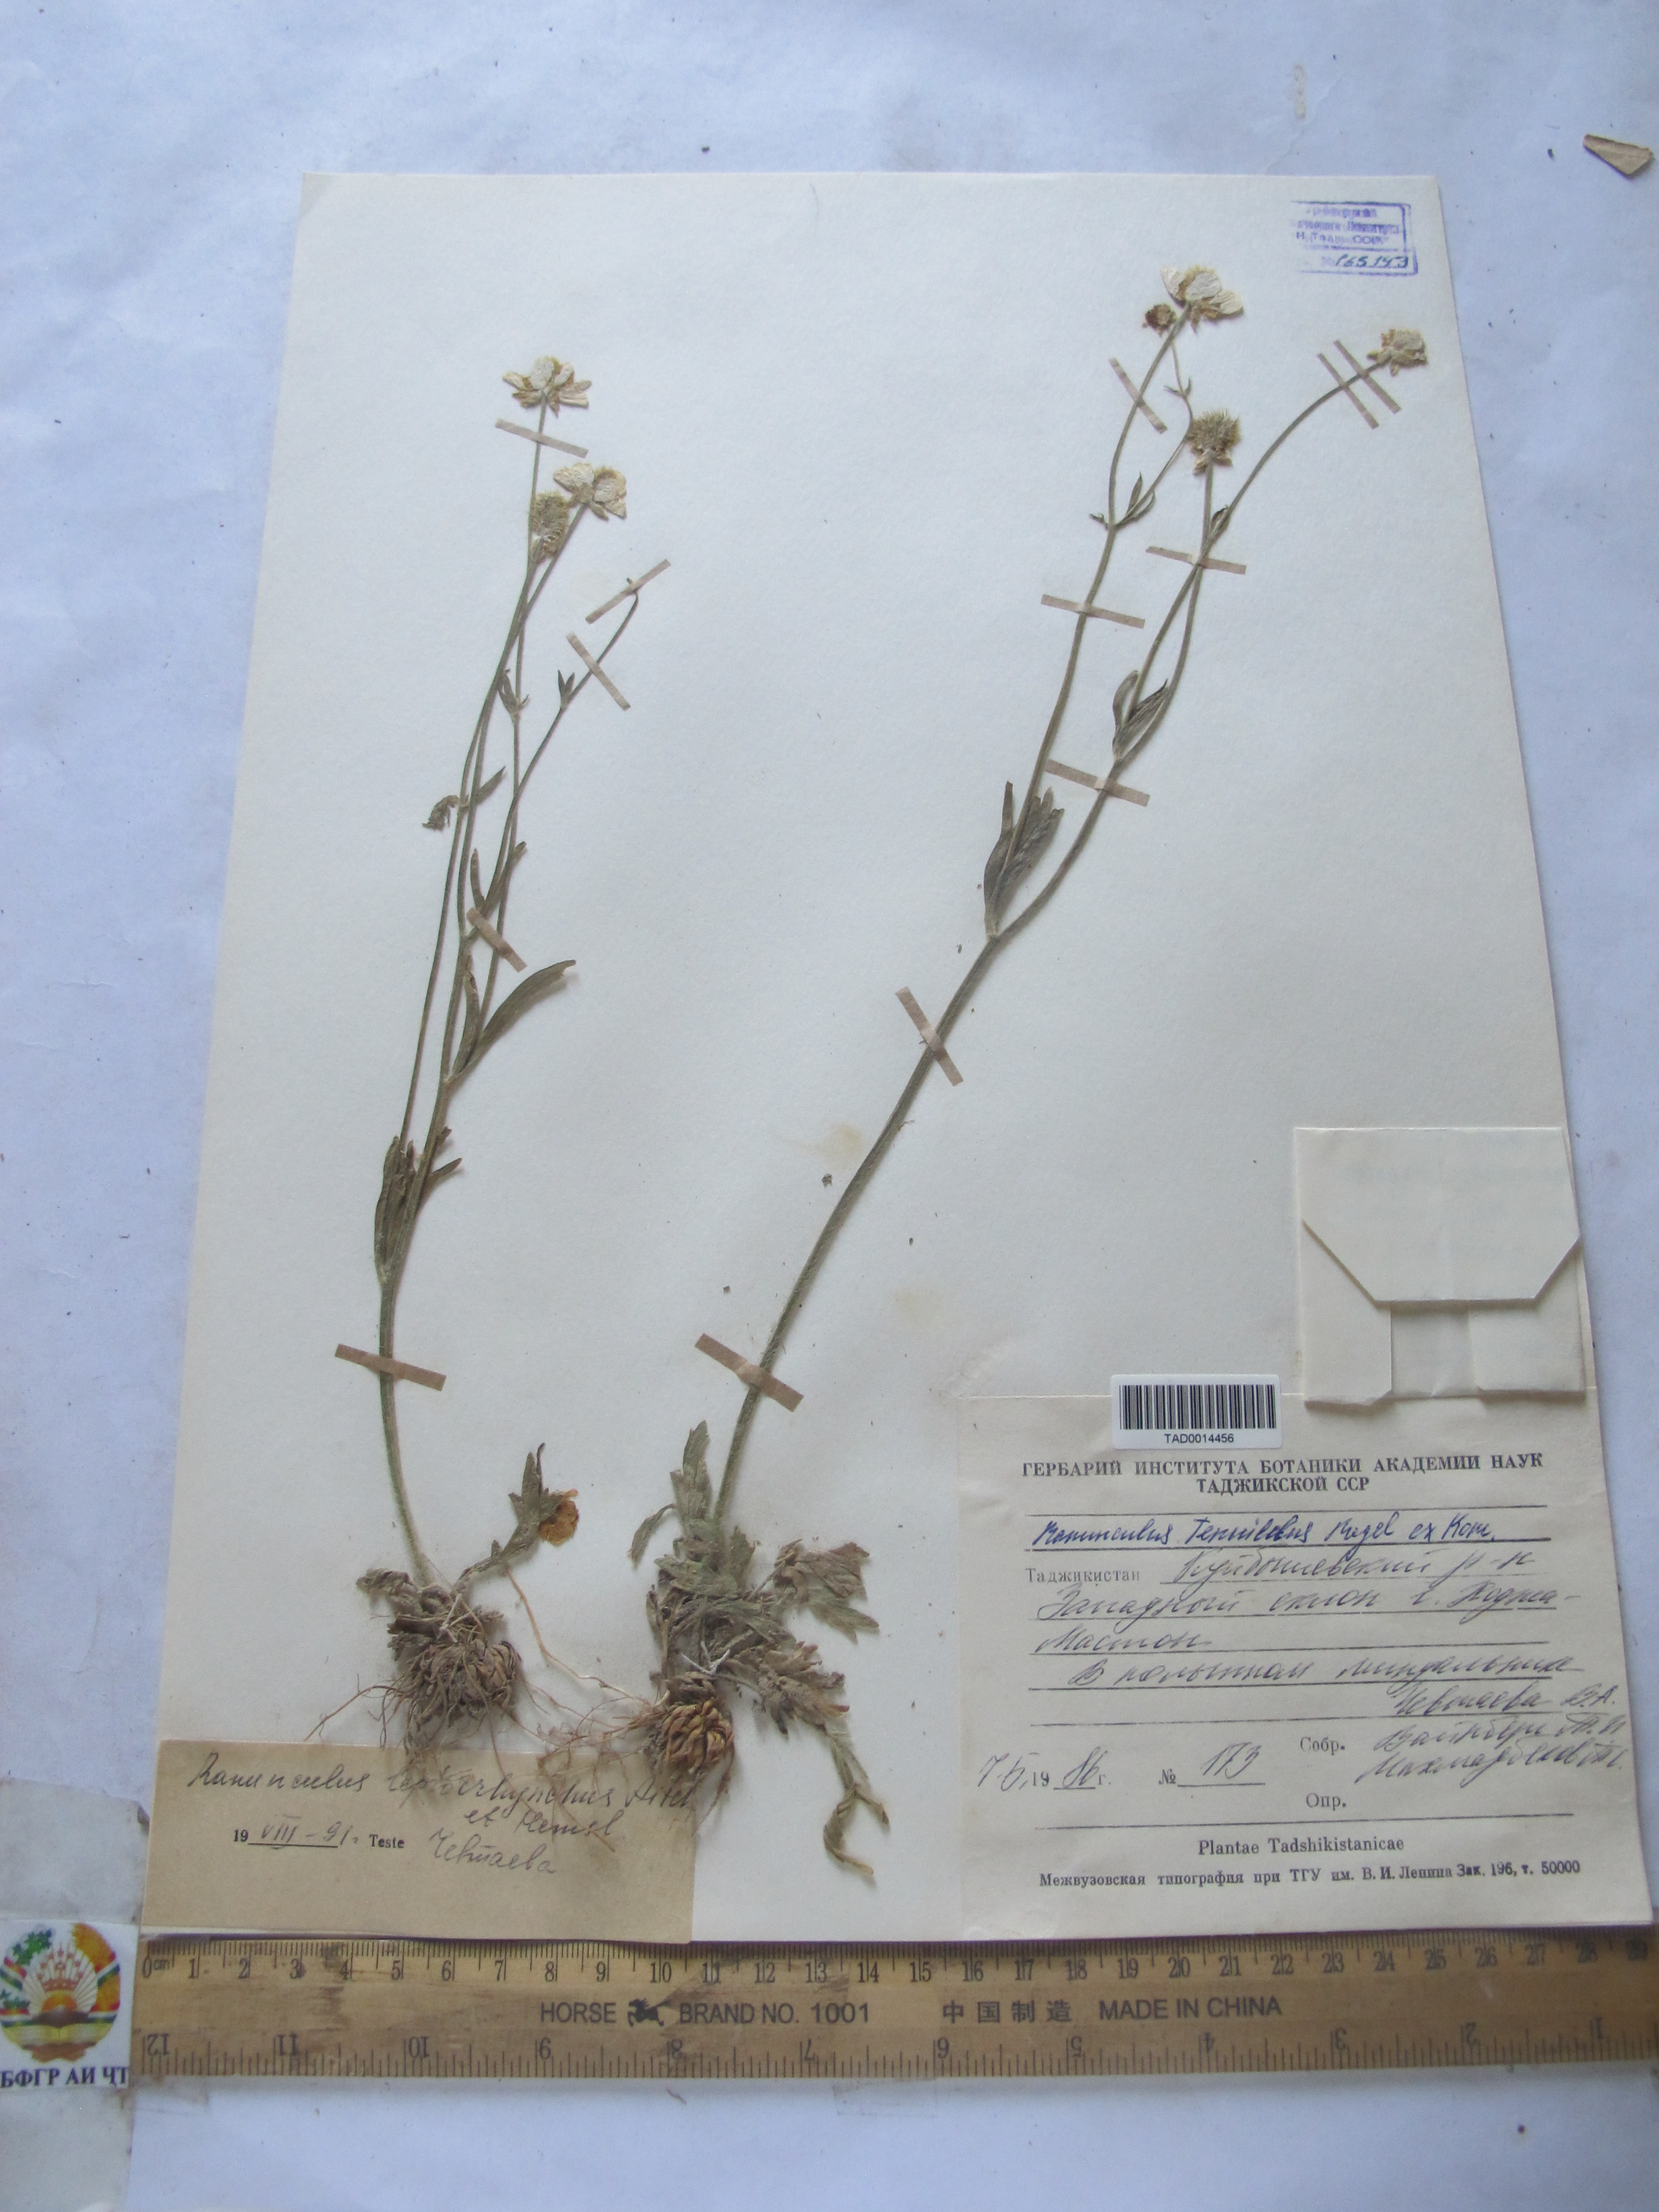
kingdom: Plantae
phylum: Tracheophyta
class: Magnoliopsida
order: Ranunculales
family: Ranunculaceae
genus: Ranunculus
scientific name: Ranunculus tenuilobus
